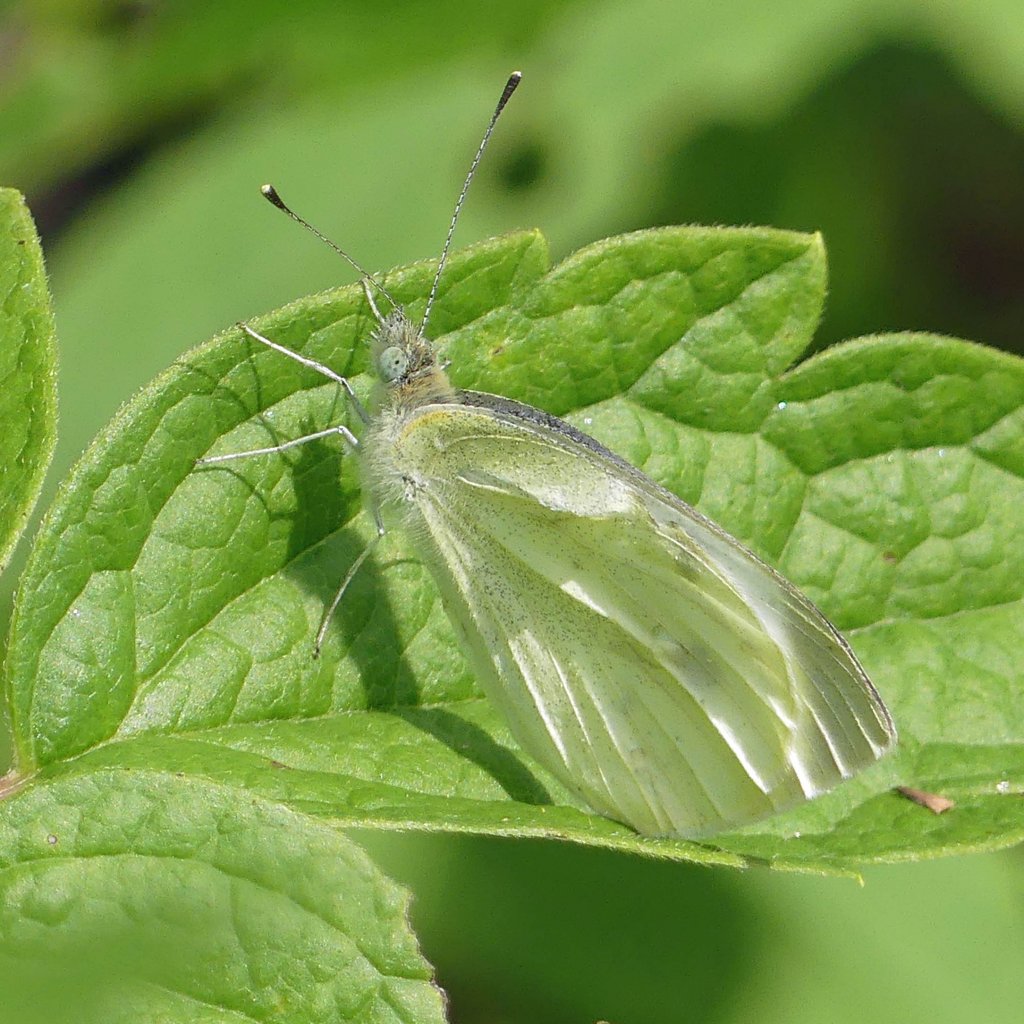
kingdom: Animalia
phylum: Arthropoda
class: Insecta
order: Lepidoptera
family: Pieridae
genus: Pieris
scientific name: Pieris rapae
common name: Cabbage White
